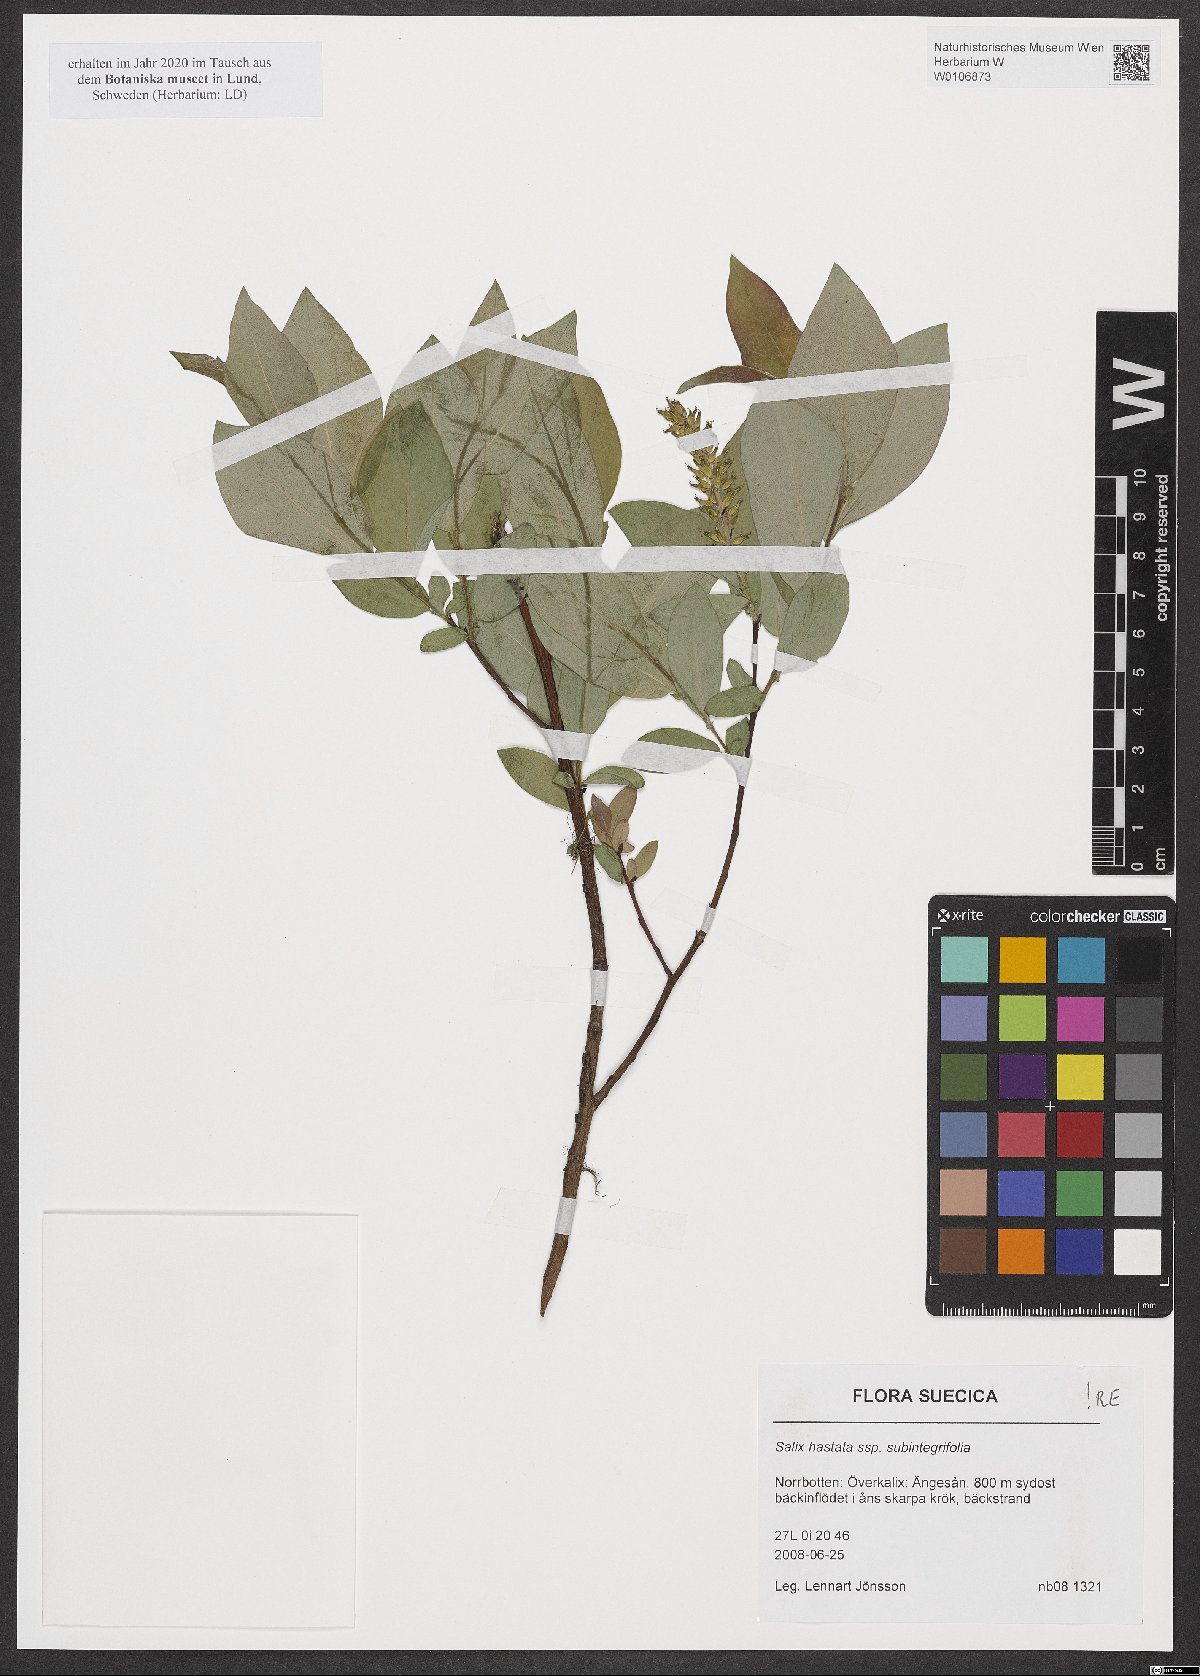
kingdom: Plantae
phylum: Tracheophyta
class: Magnoliopsida
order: Malpighiales
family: Salicaceae
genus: Salix
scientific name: Salix hastata
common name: Halberd willow
